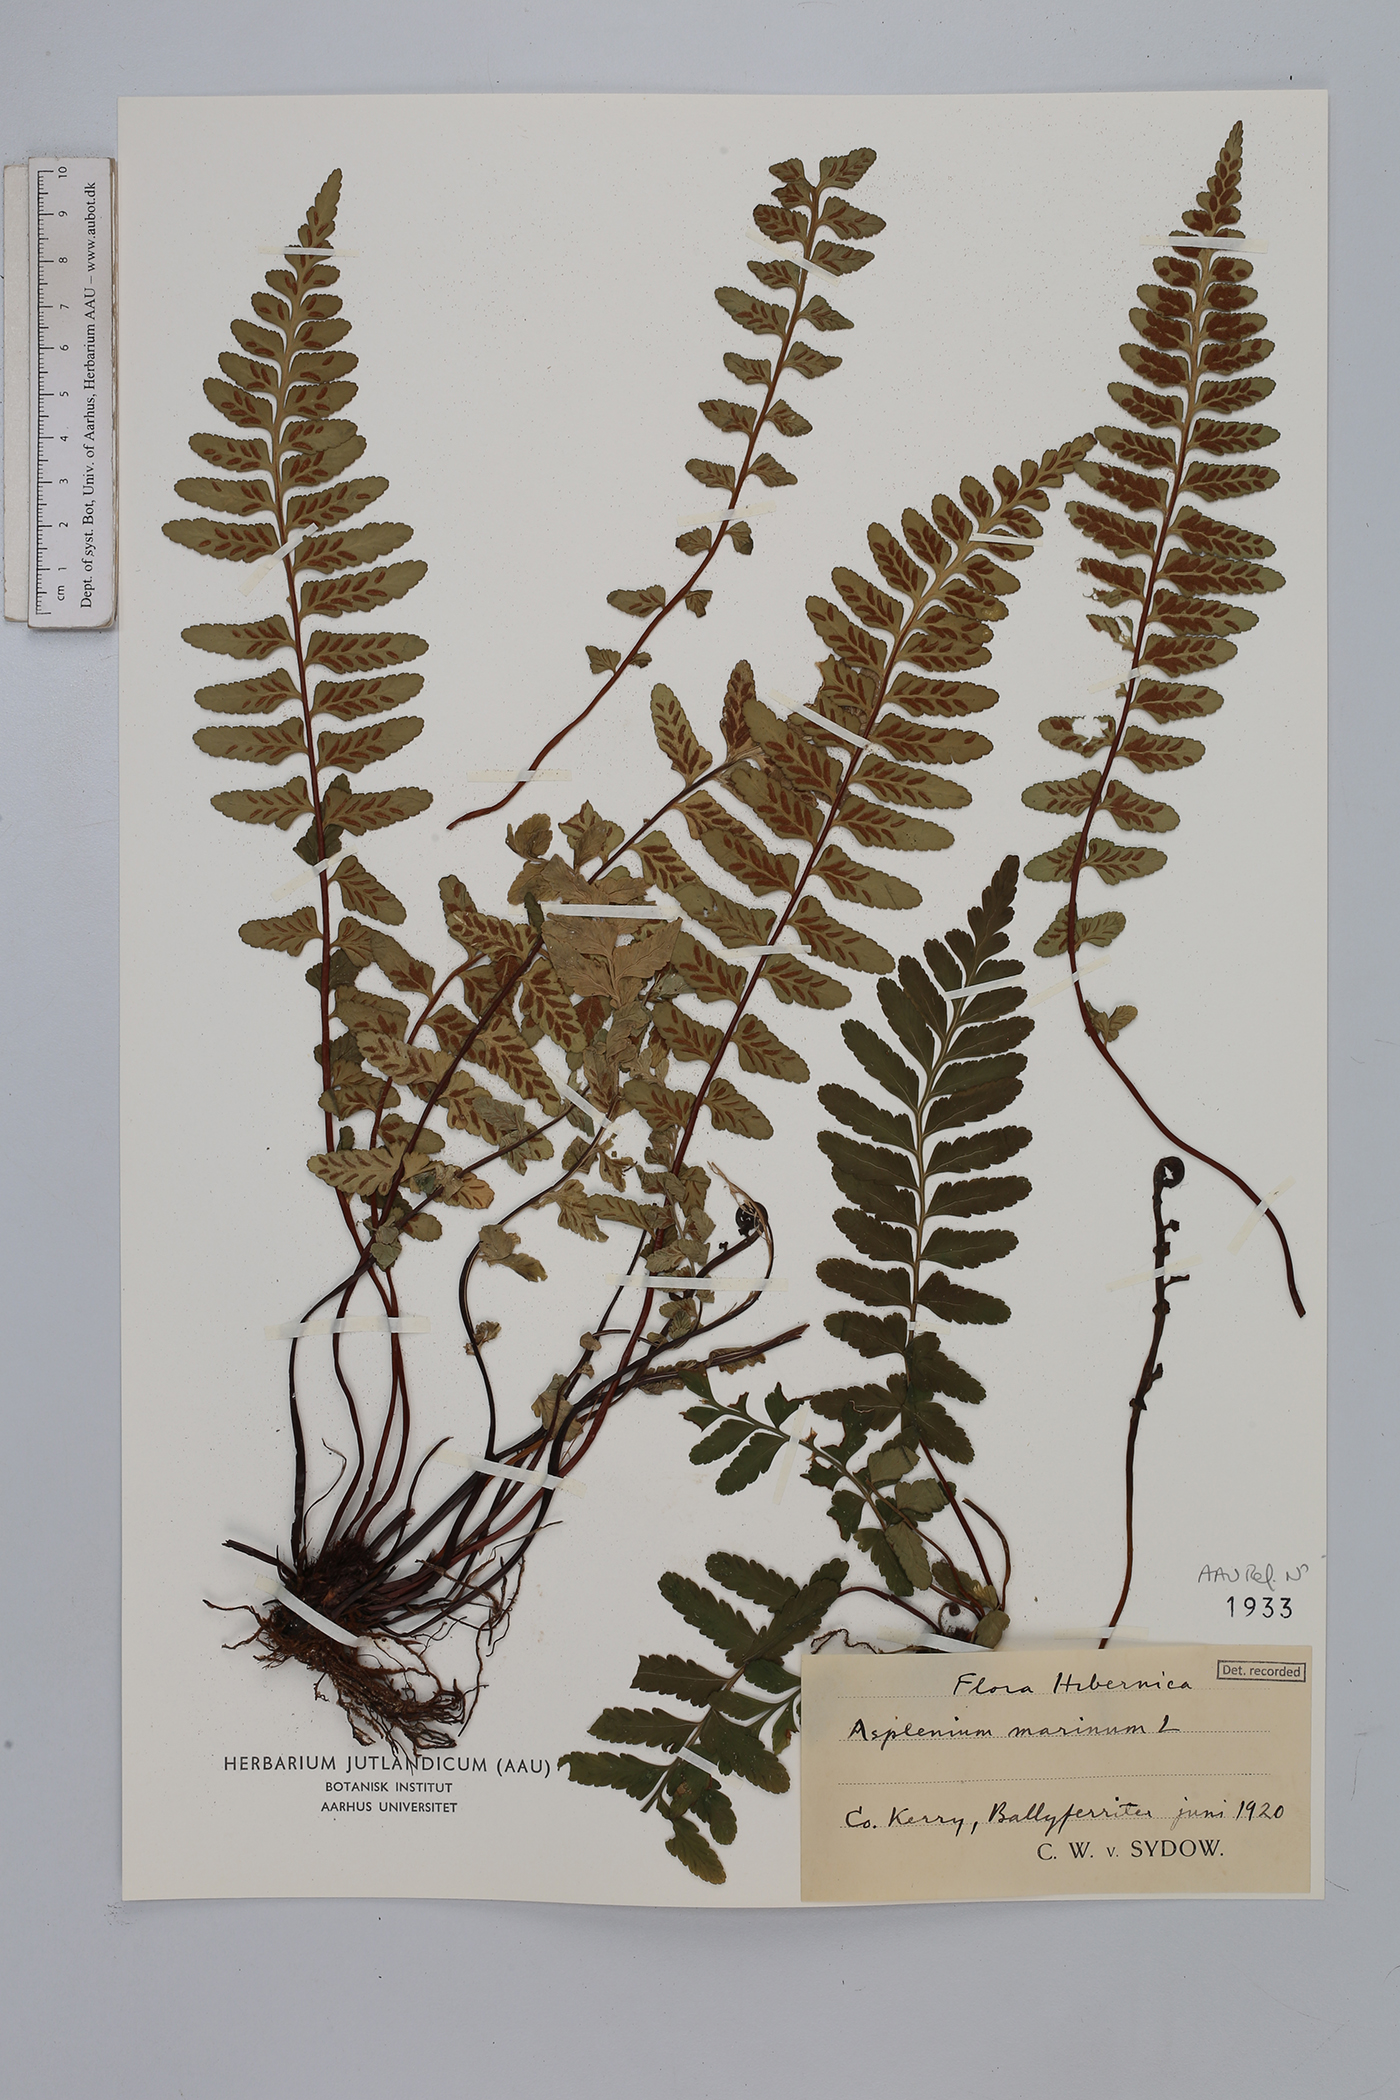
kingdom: Plantae
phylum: Tracheophyta
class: Polypodiopsida
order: Polypodiales
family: Aspleniaceae
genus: Asplenium
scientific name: Asplenium marinum
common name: Sea spleenwort
